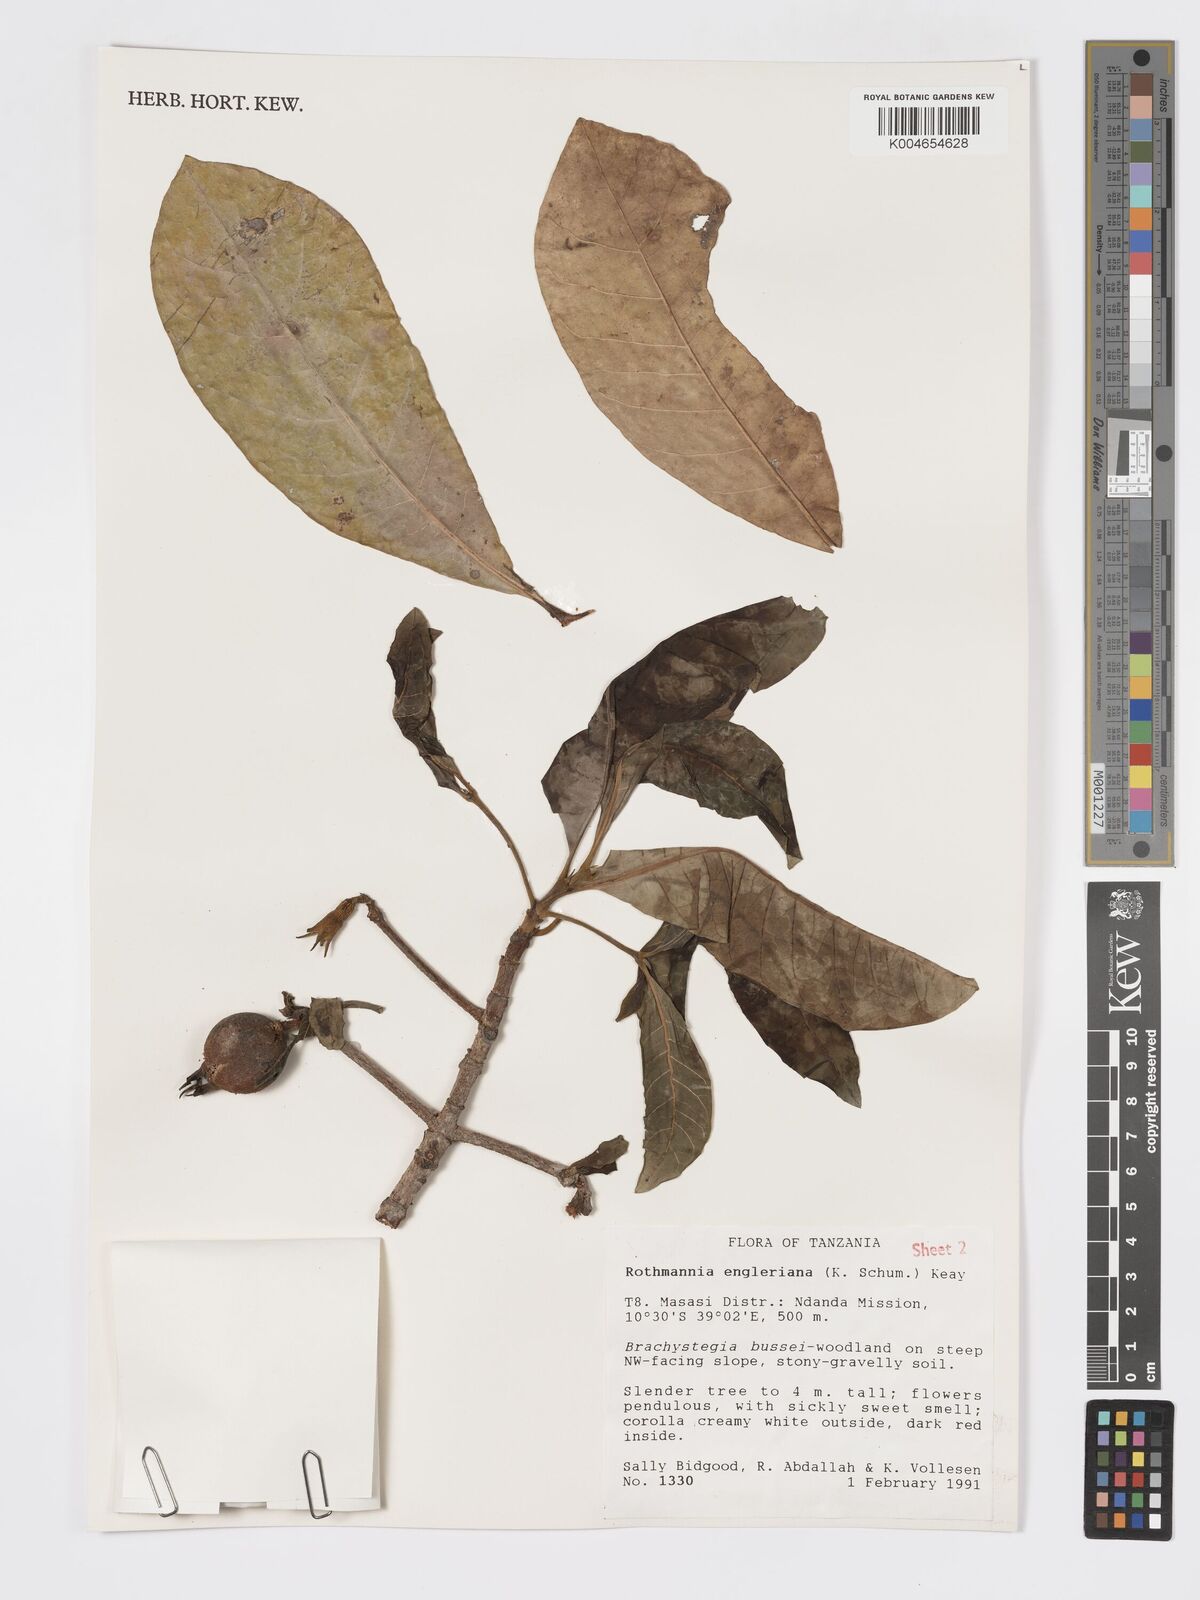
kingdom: Plantae
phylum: Tracheophyta
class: Magnoliopsida
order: Gentianales
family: Rubiaceae
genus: Rothmannia
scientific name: Rothmannia engleriana
